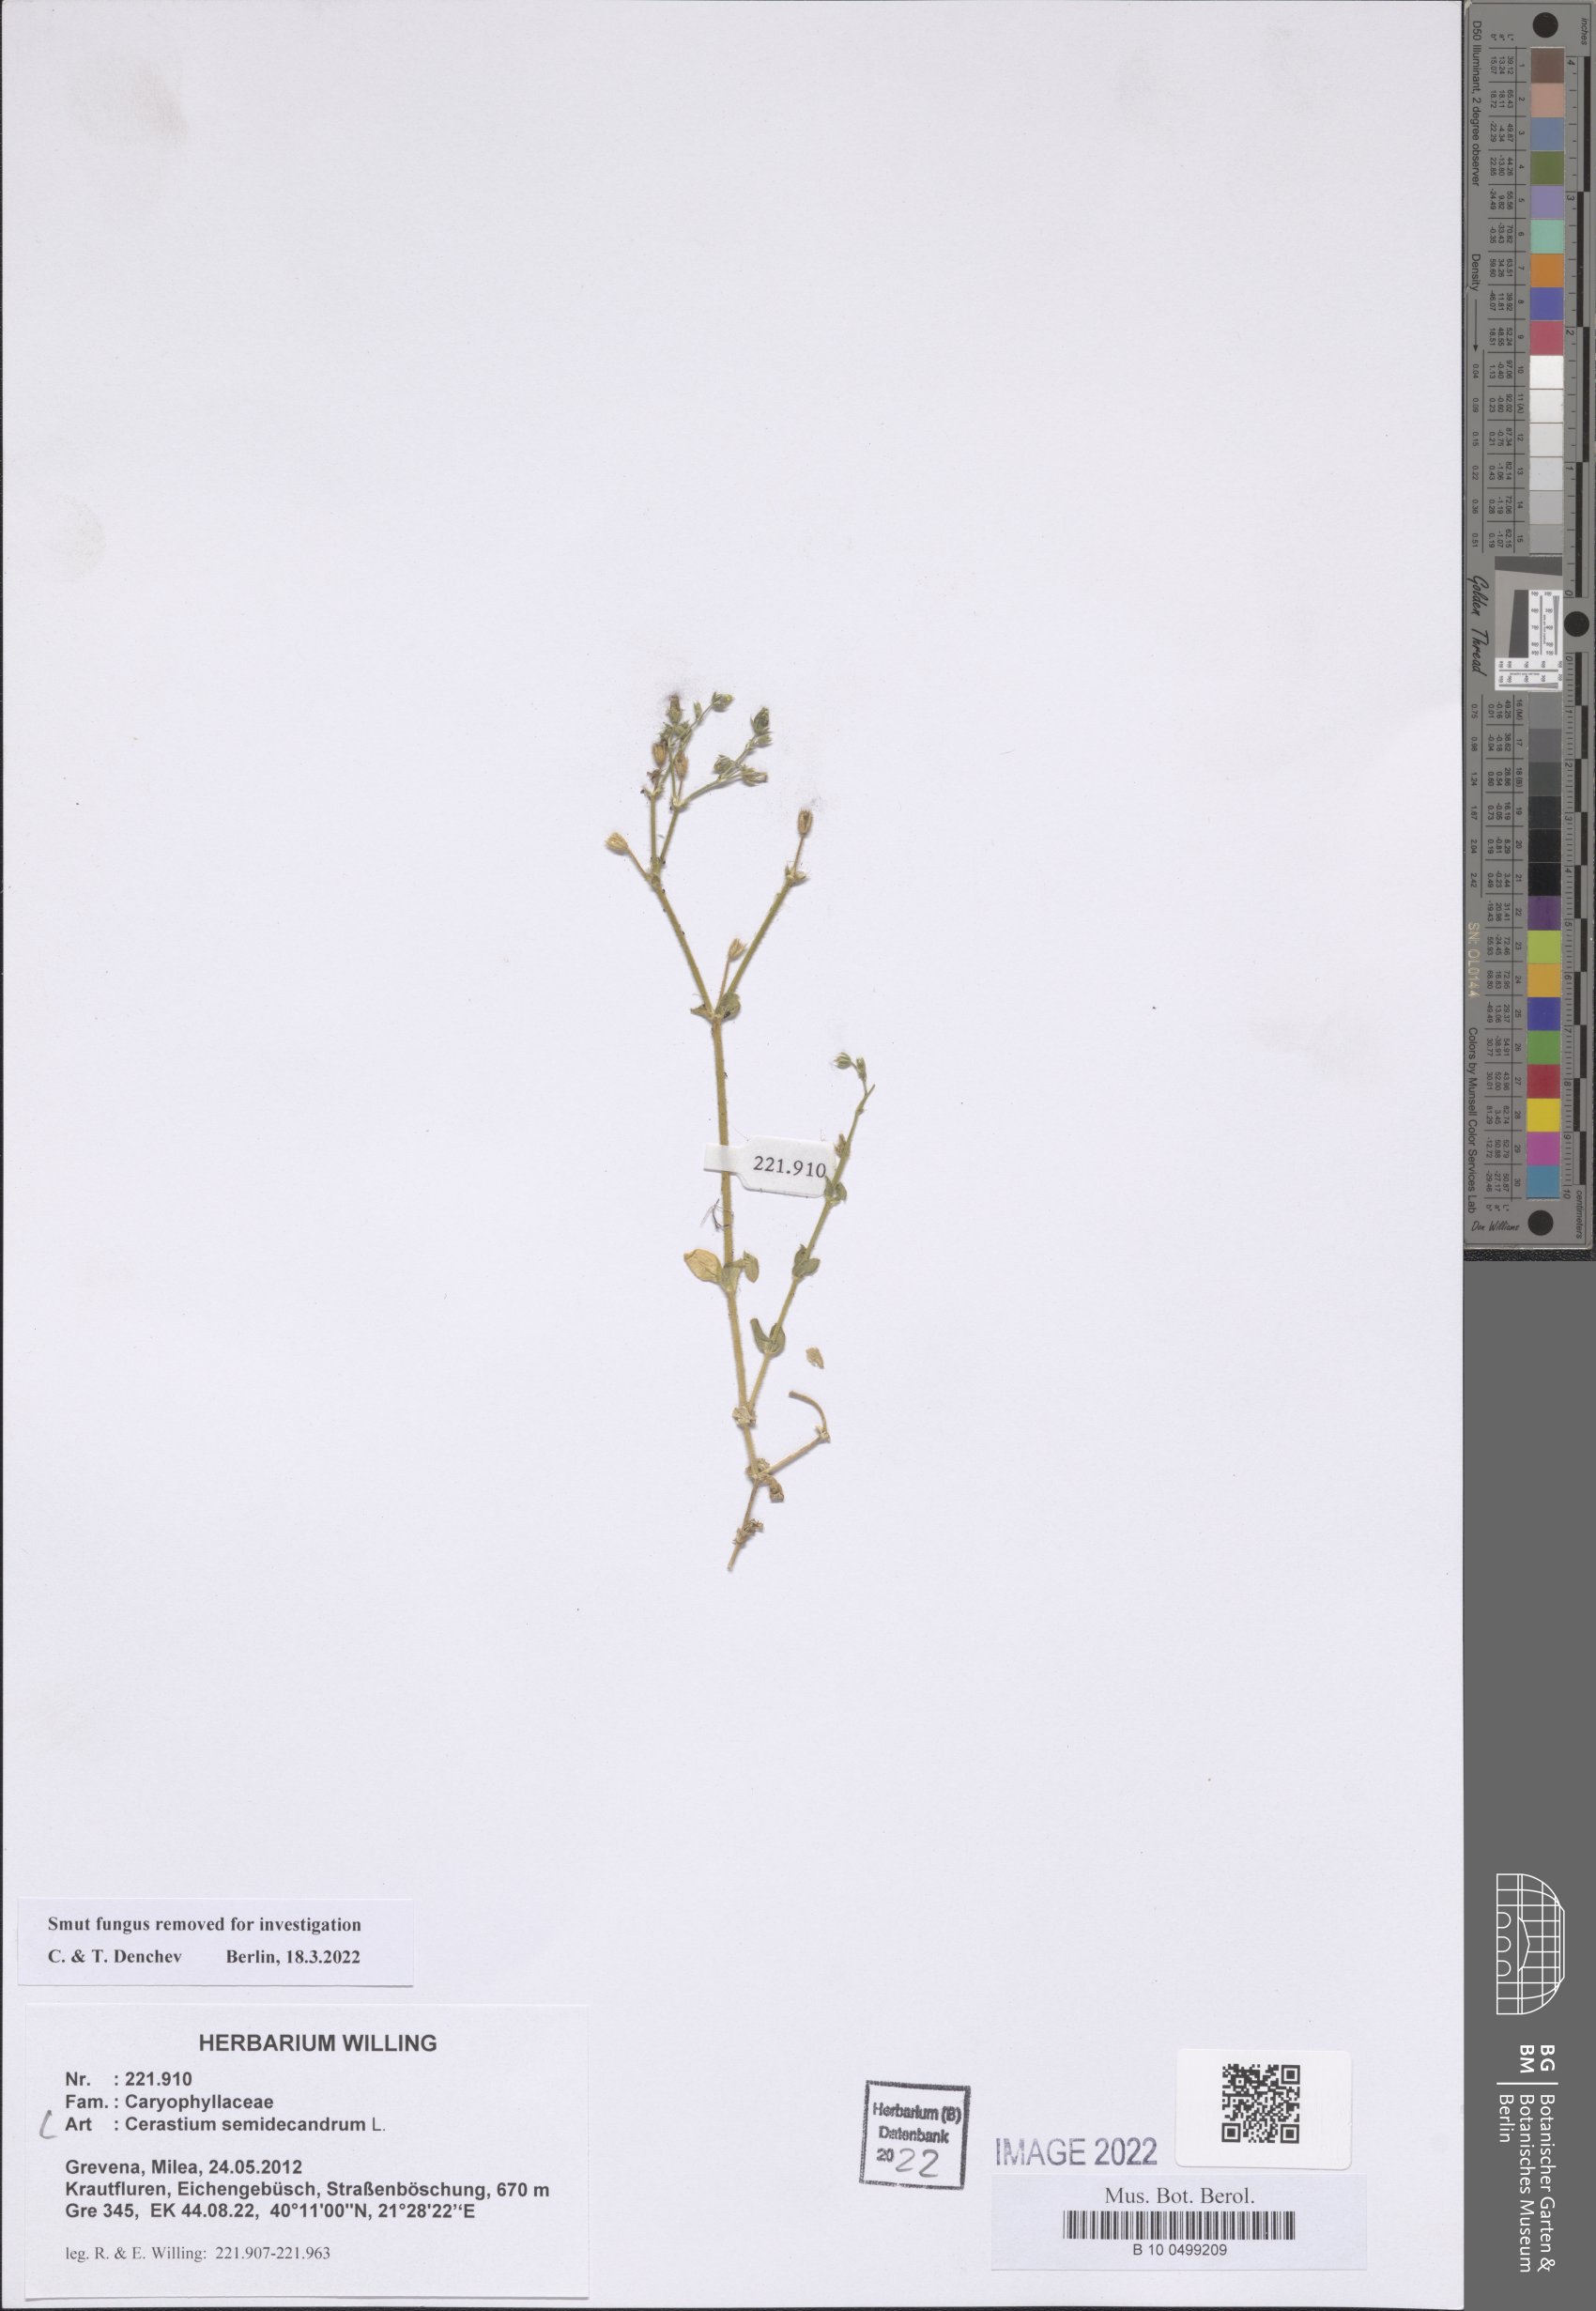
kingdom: Plantae
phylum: Tracheophyta
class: Magnoliopsida
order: Caryophyllales
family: Caryophyllaceae
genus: Cerastium
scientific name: Cerastium semidecandrum
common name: Little mouse-ear
